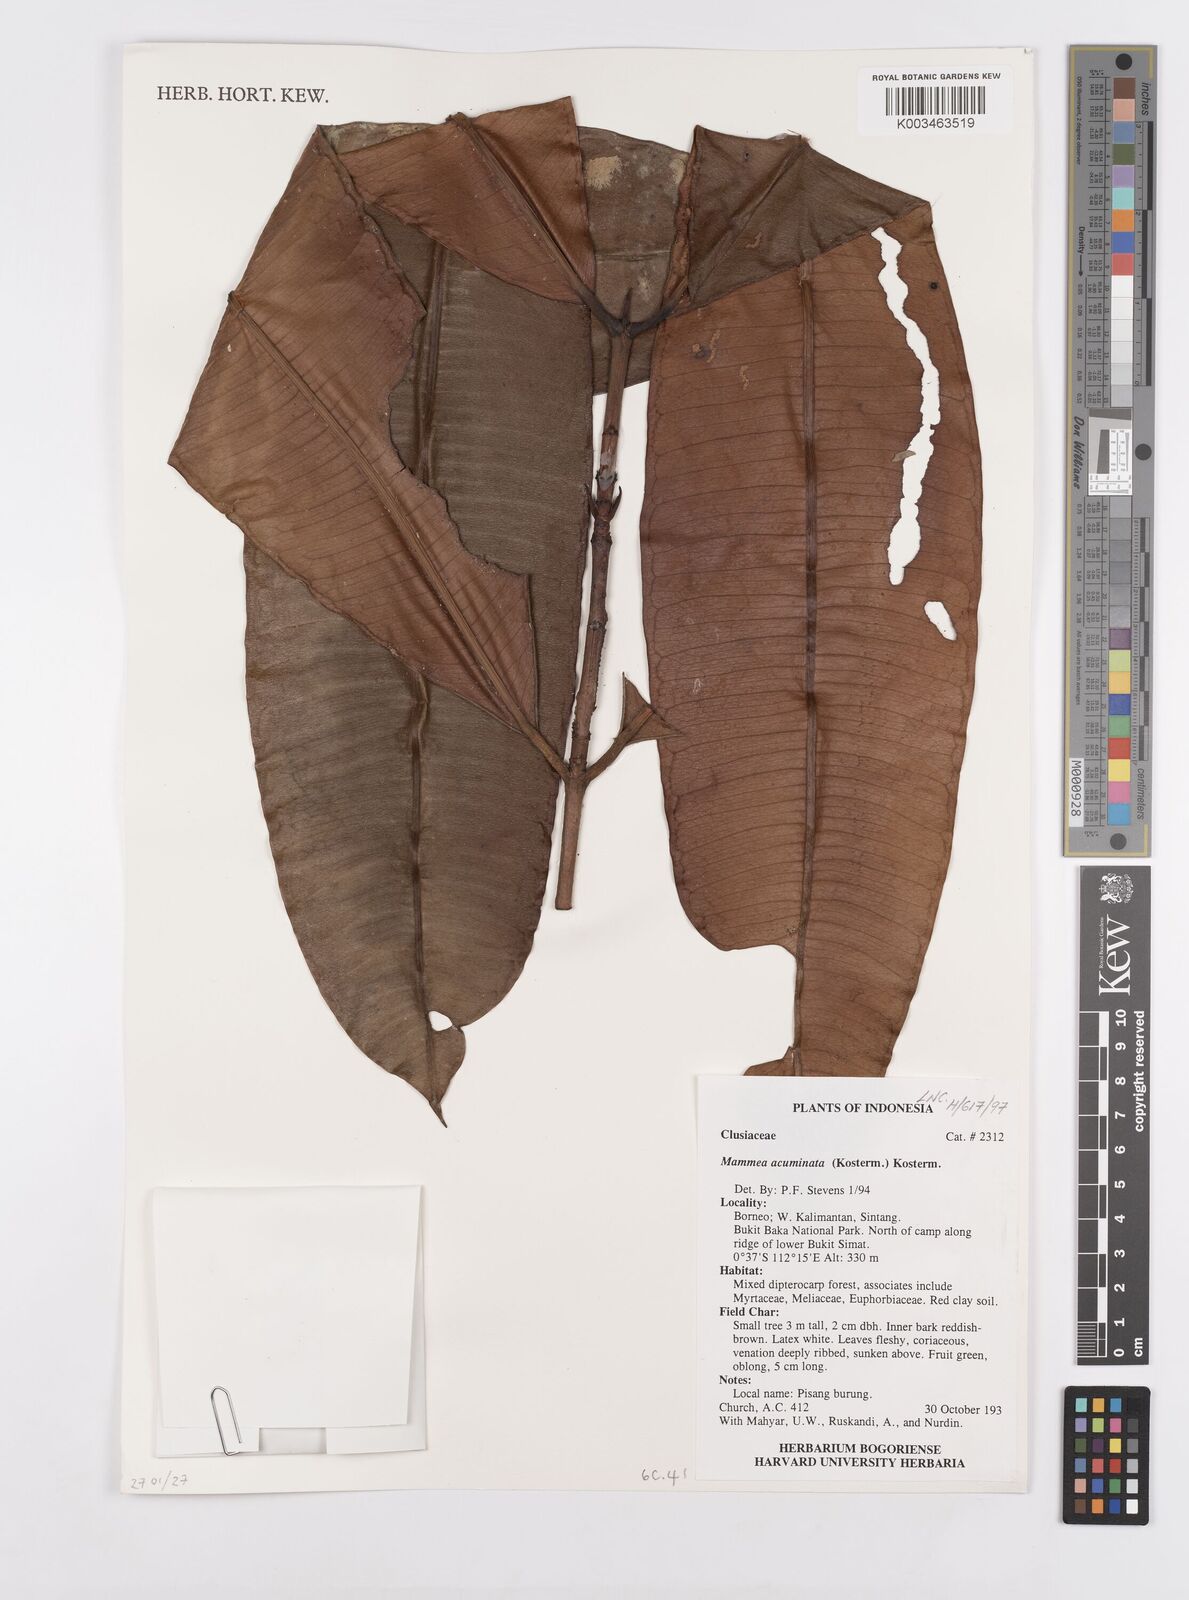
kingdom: Plantae
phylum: Tracheophyta
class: Magnoliopsida
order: Malpighiales
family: Calophyllaceae
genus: Mammea
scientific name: Mammea acuminata
